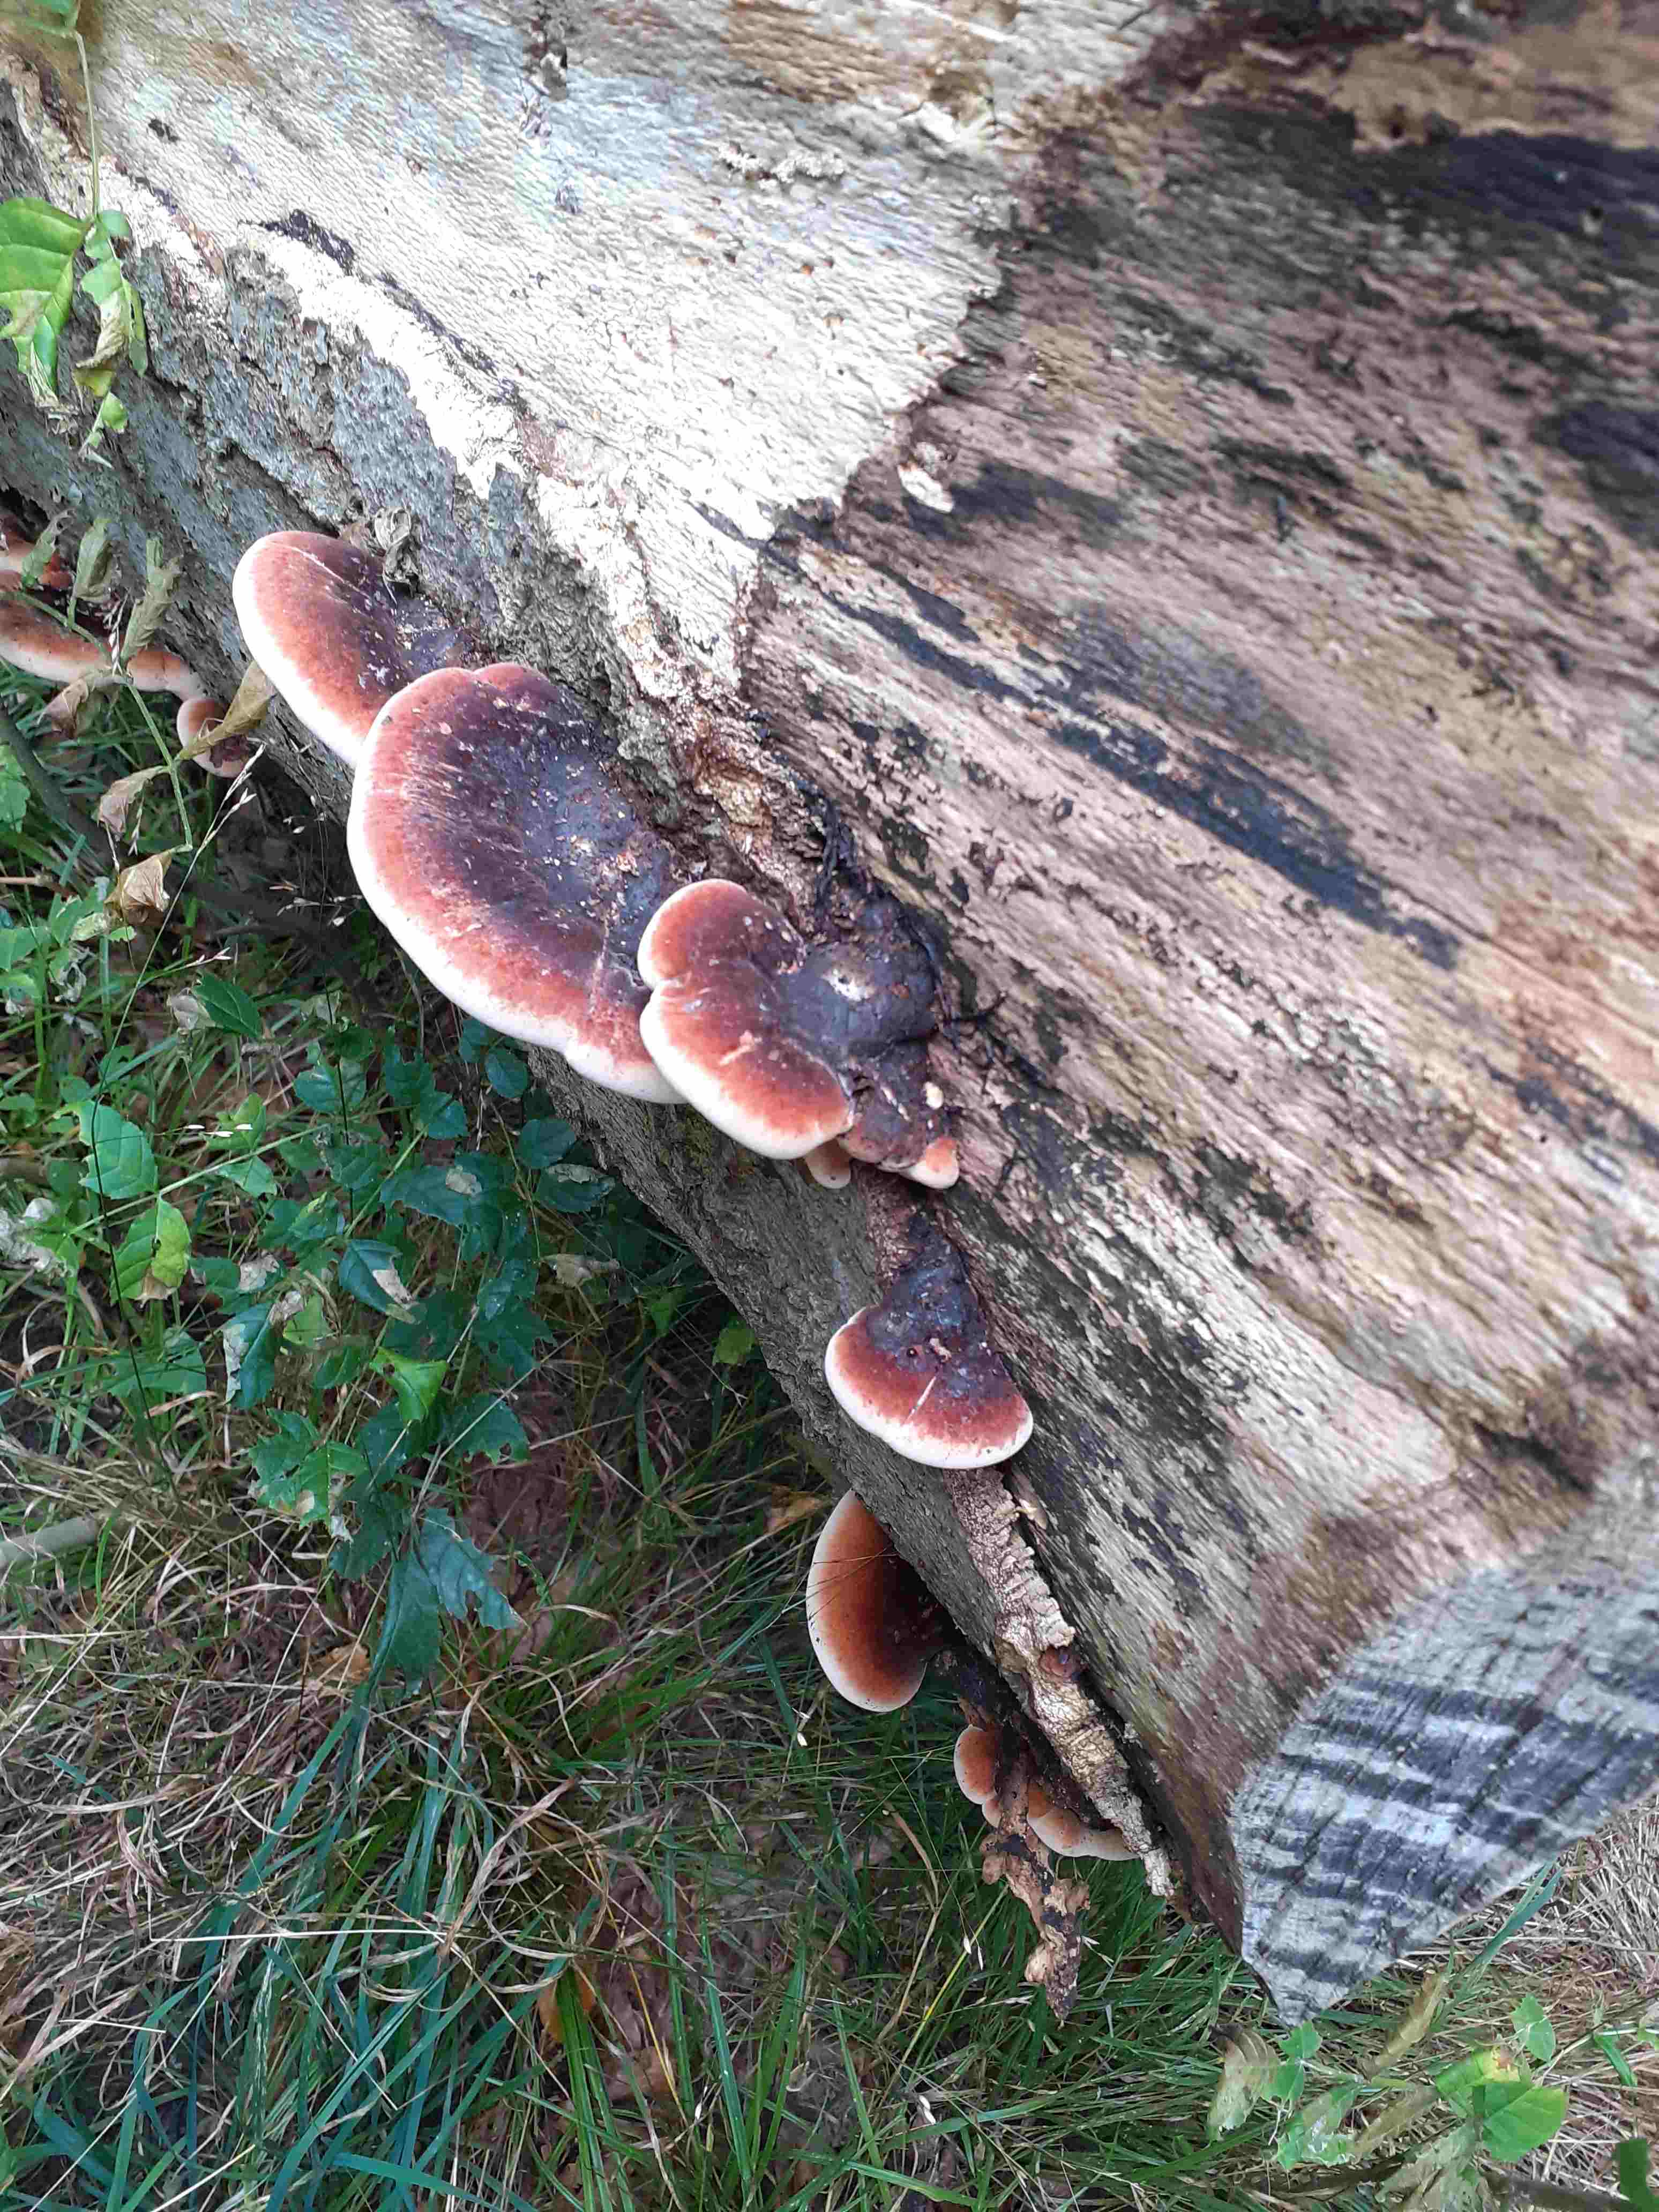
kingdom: Fungi
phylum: Basidiomycota
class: Agaricomycetes
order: Polyporales
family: Ischnodermataceae
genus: Ischnoderma
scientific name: Ischnoderma resinosum
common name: løv-tjæreporesvamp
